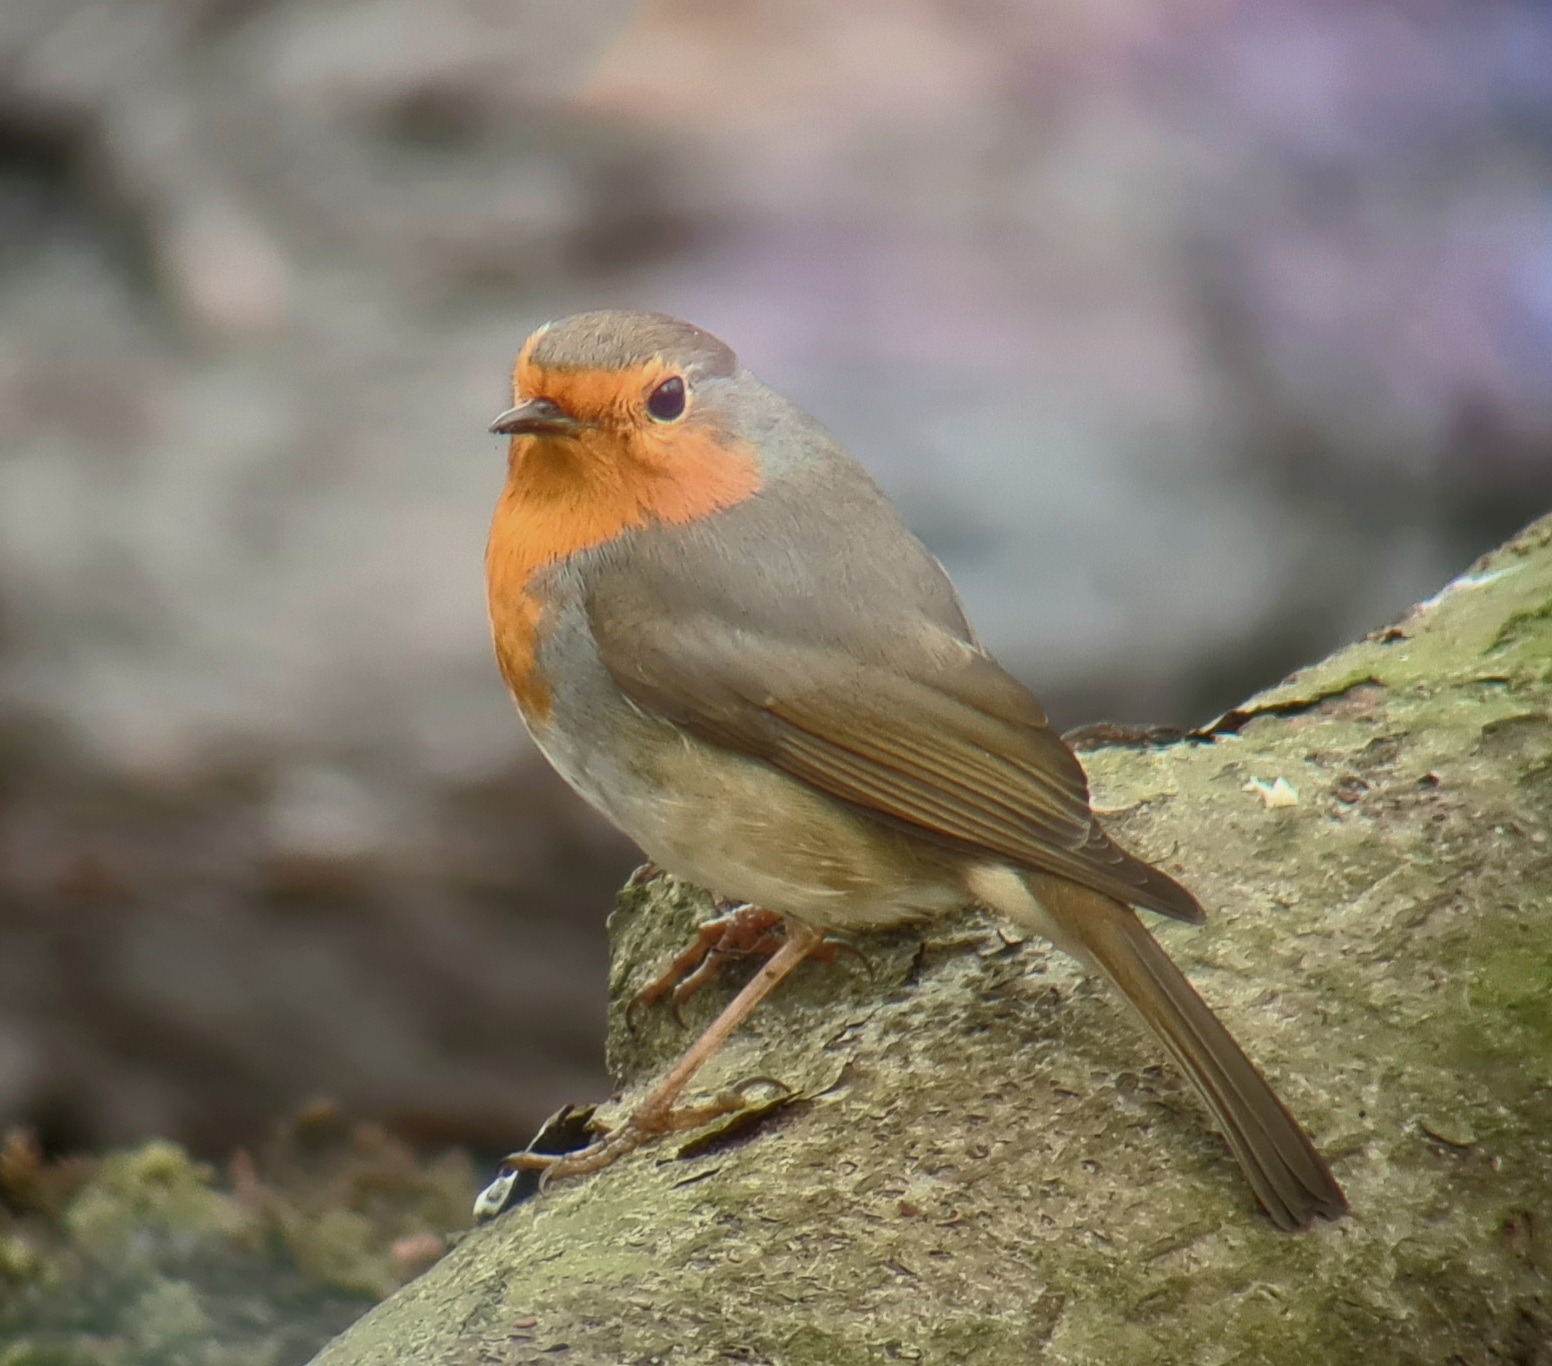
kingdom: Animalia
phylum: Chordata
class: Aves
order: Passeriformes
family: Muscicapidae
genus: Erithacus
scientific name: Erithacus rubecula
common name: Rødhals/rødkælk
